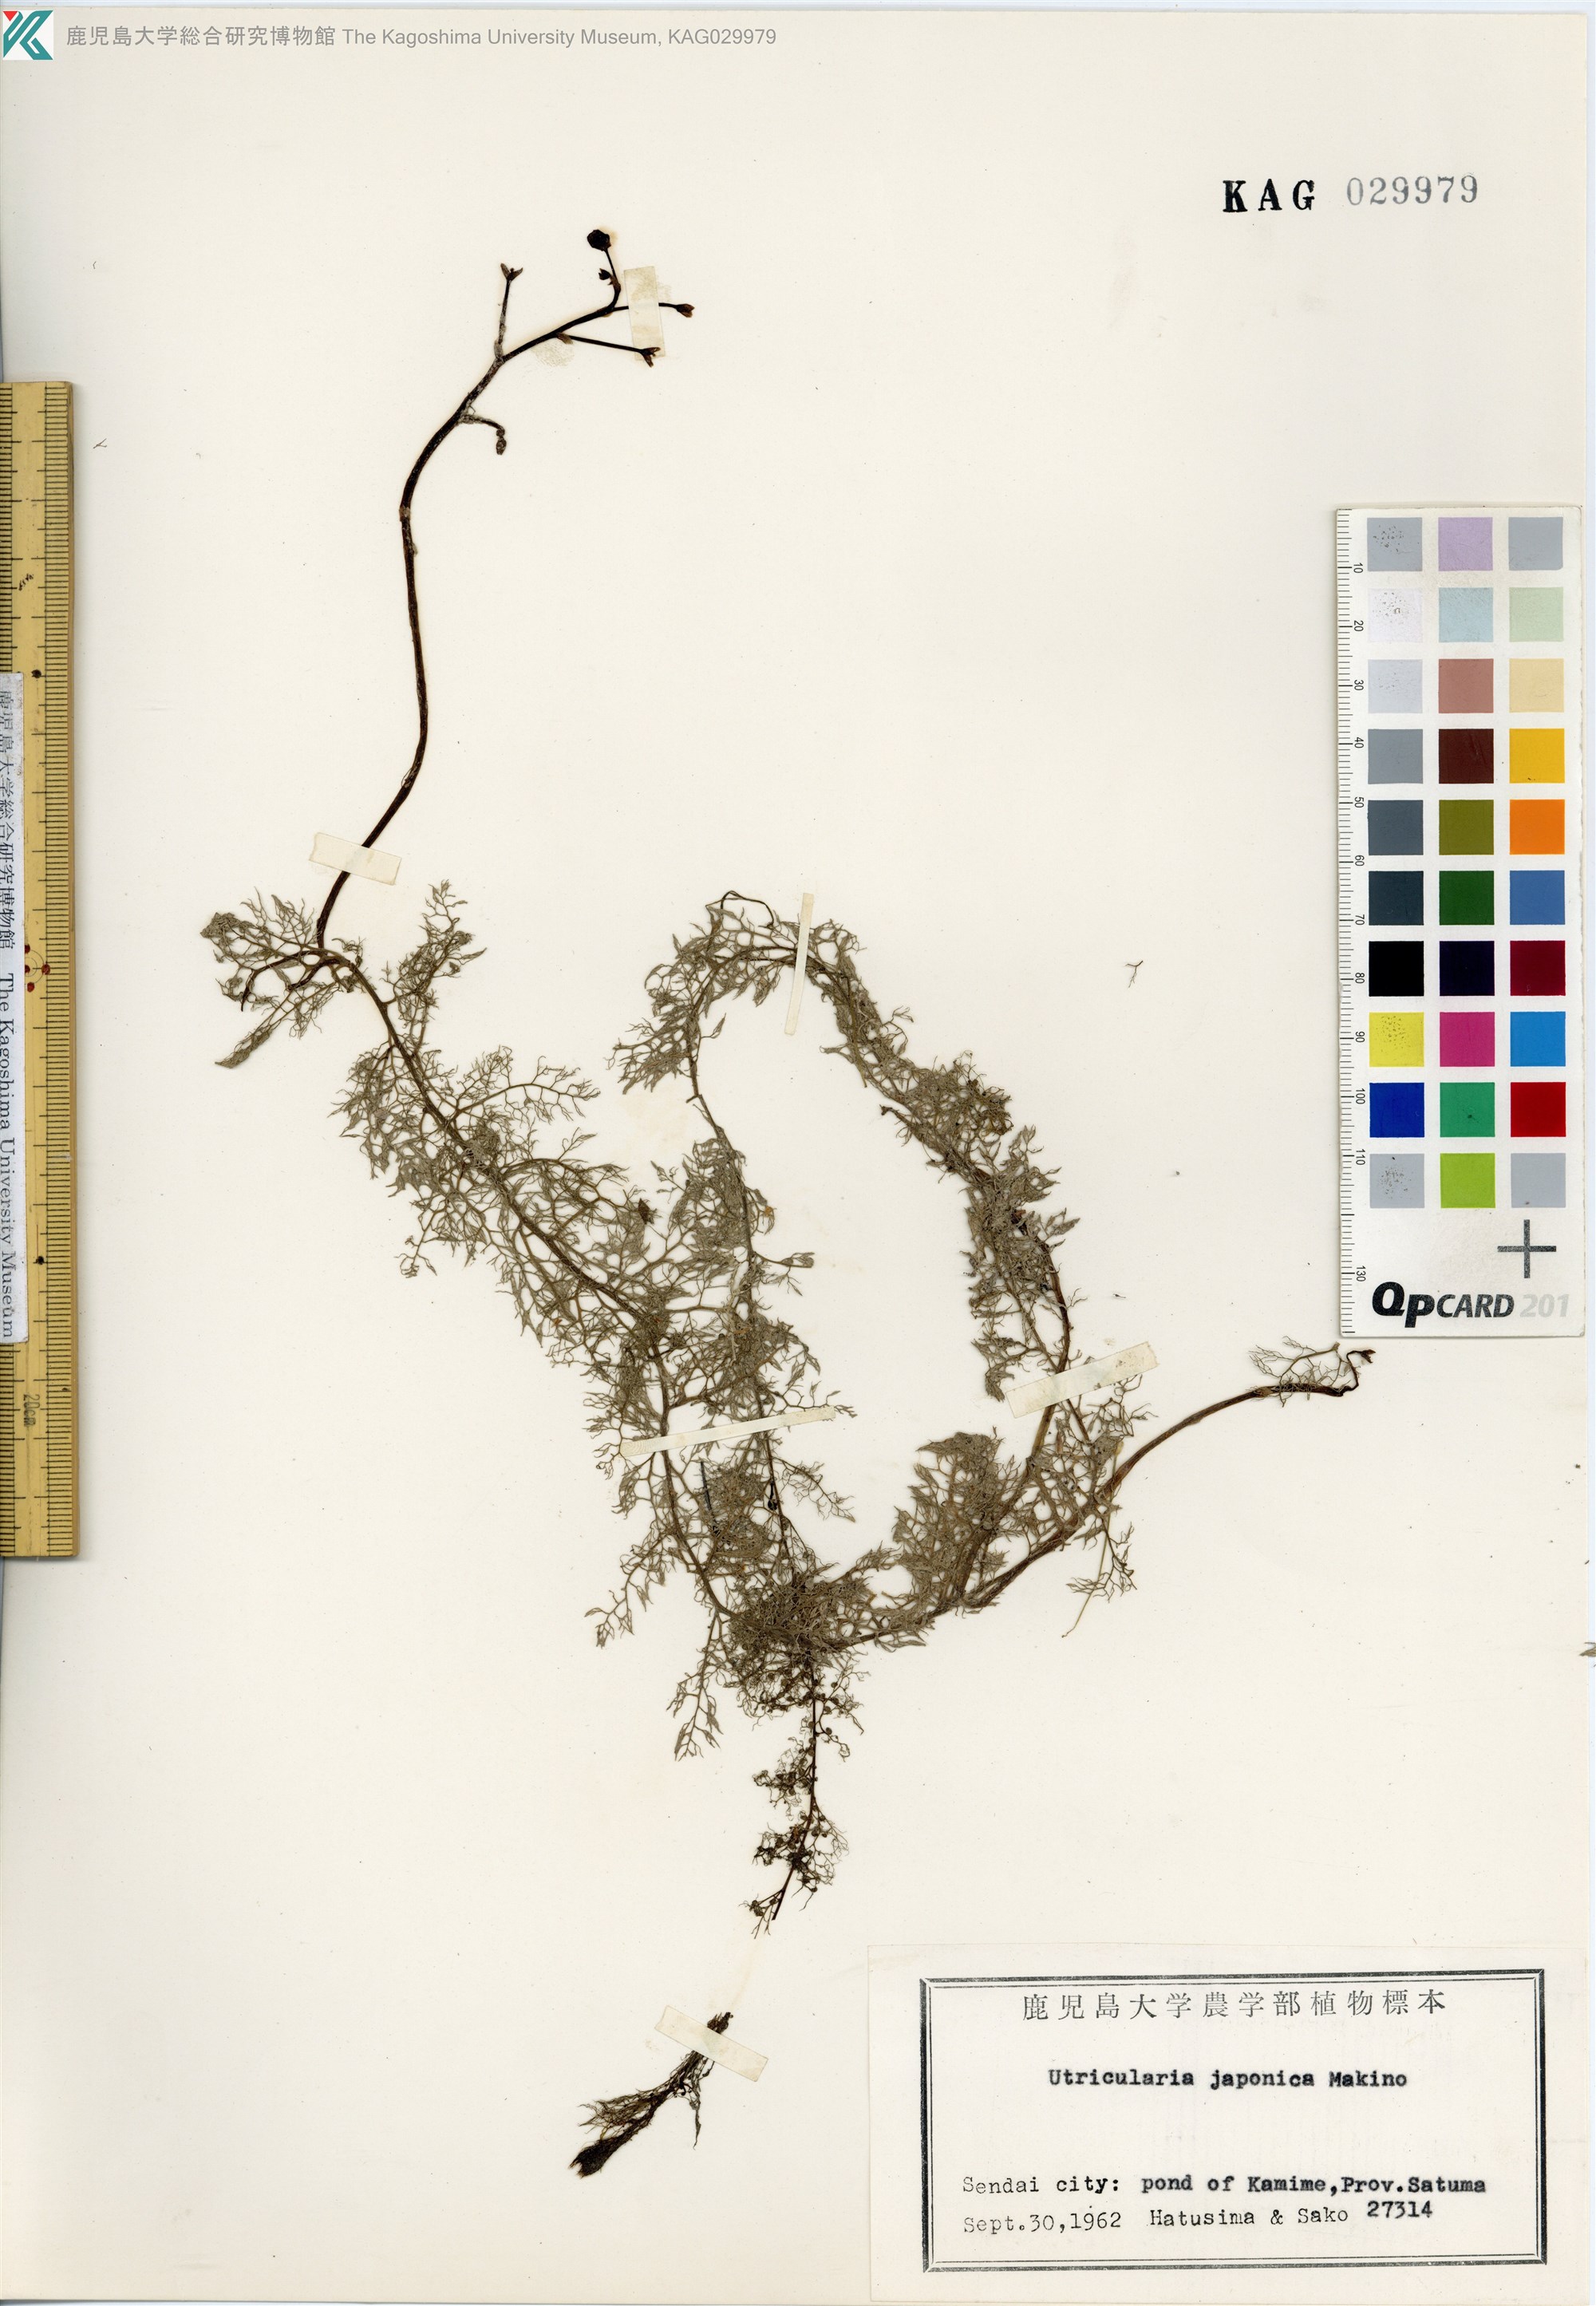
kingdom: Plantae
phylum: Tracheophyta
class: Magnoliopsida
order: Lamiales
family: Lentibulariaceae
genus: Utricularia
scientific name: Utricularia japonica
